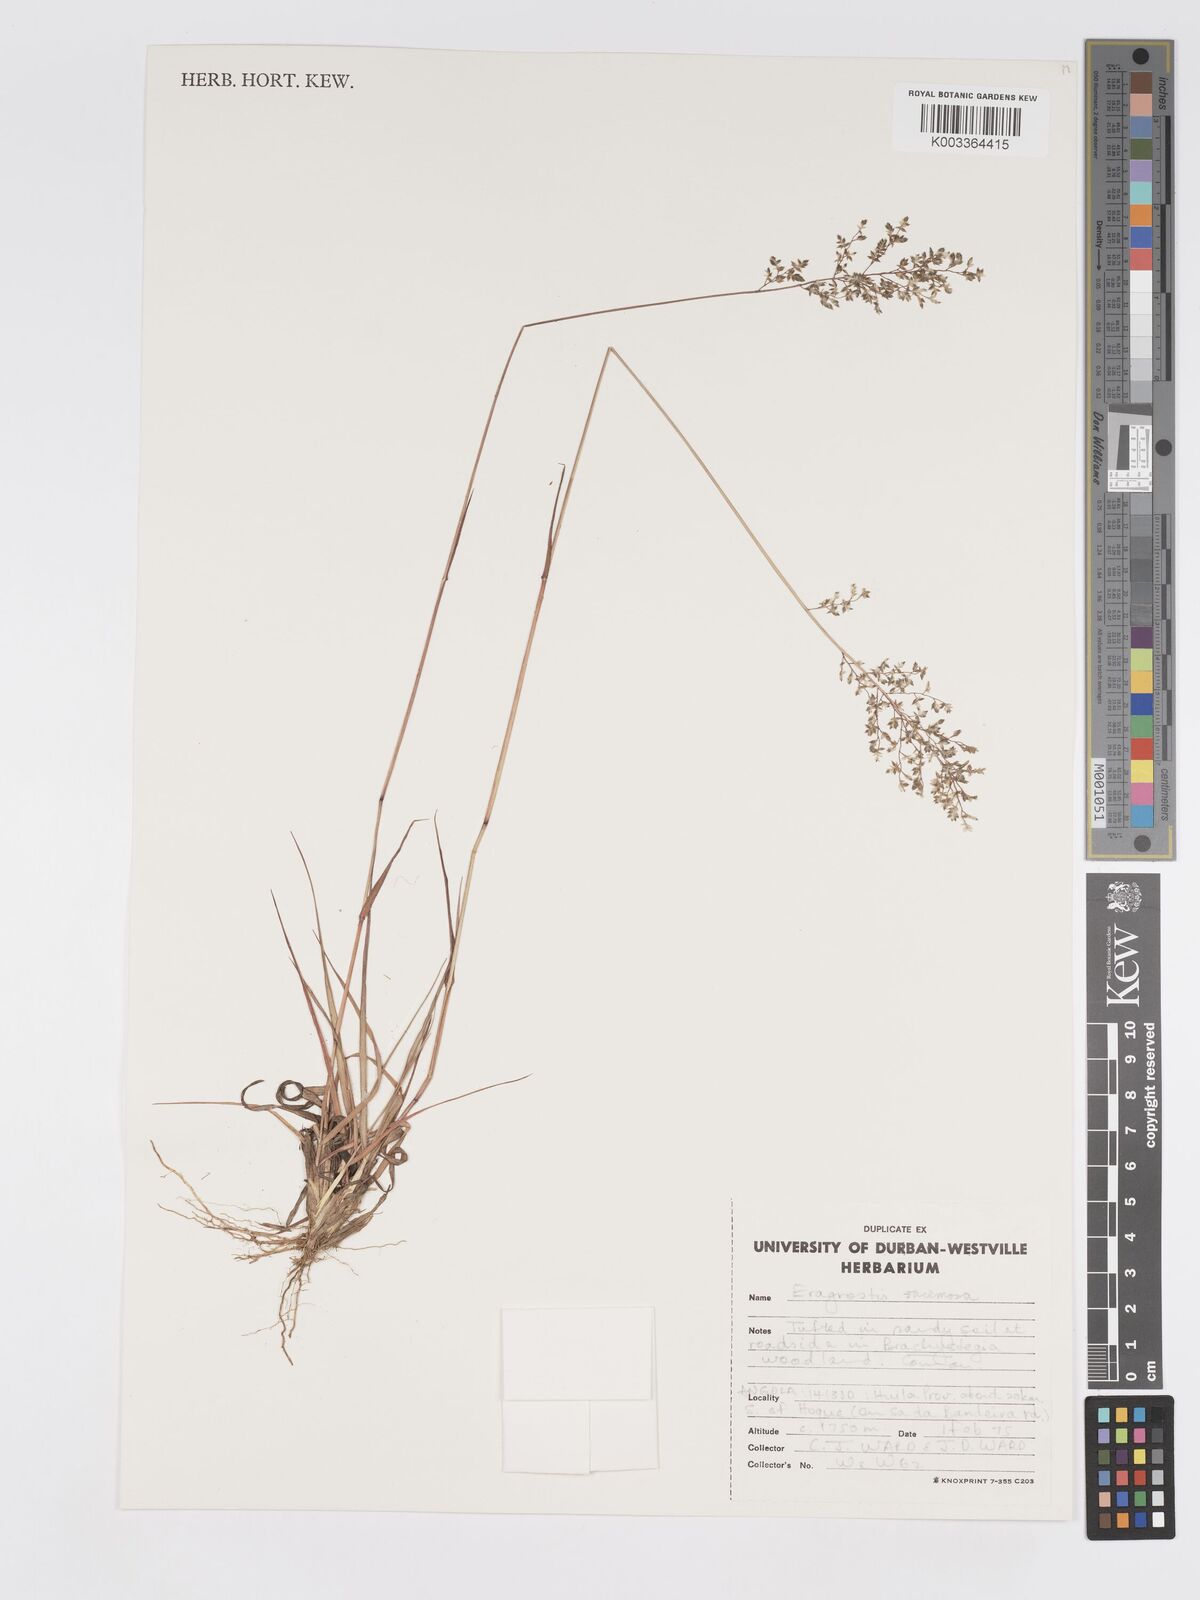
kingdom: Plantae
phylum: Tracheophyta
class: Liliopsida
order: Poales
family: Poaceae
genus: Eragrostis
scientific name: Eragrostis racemosa
